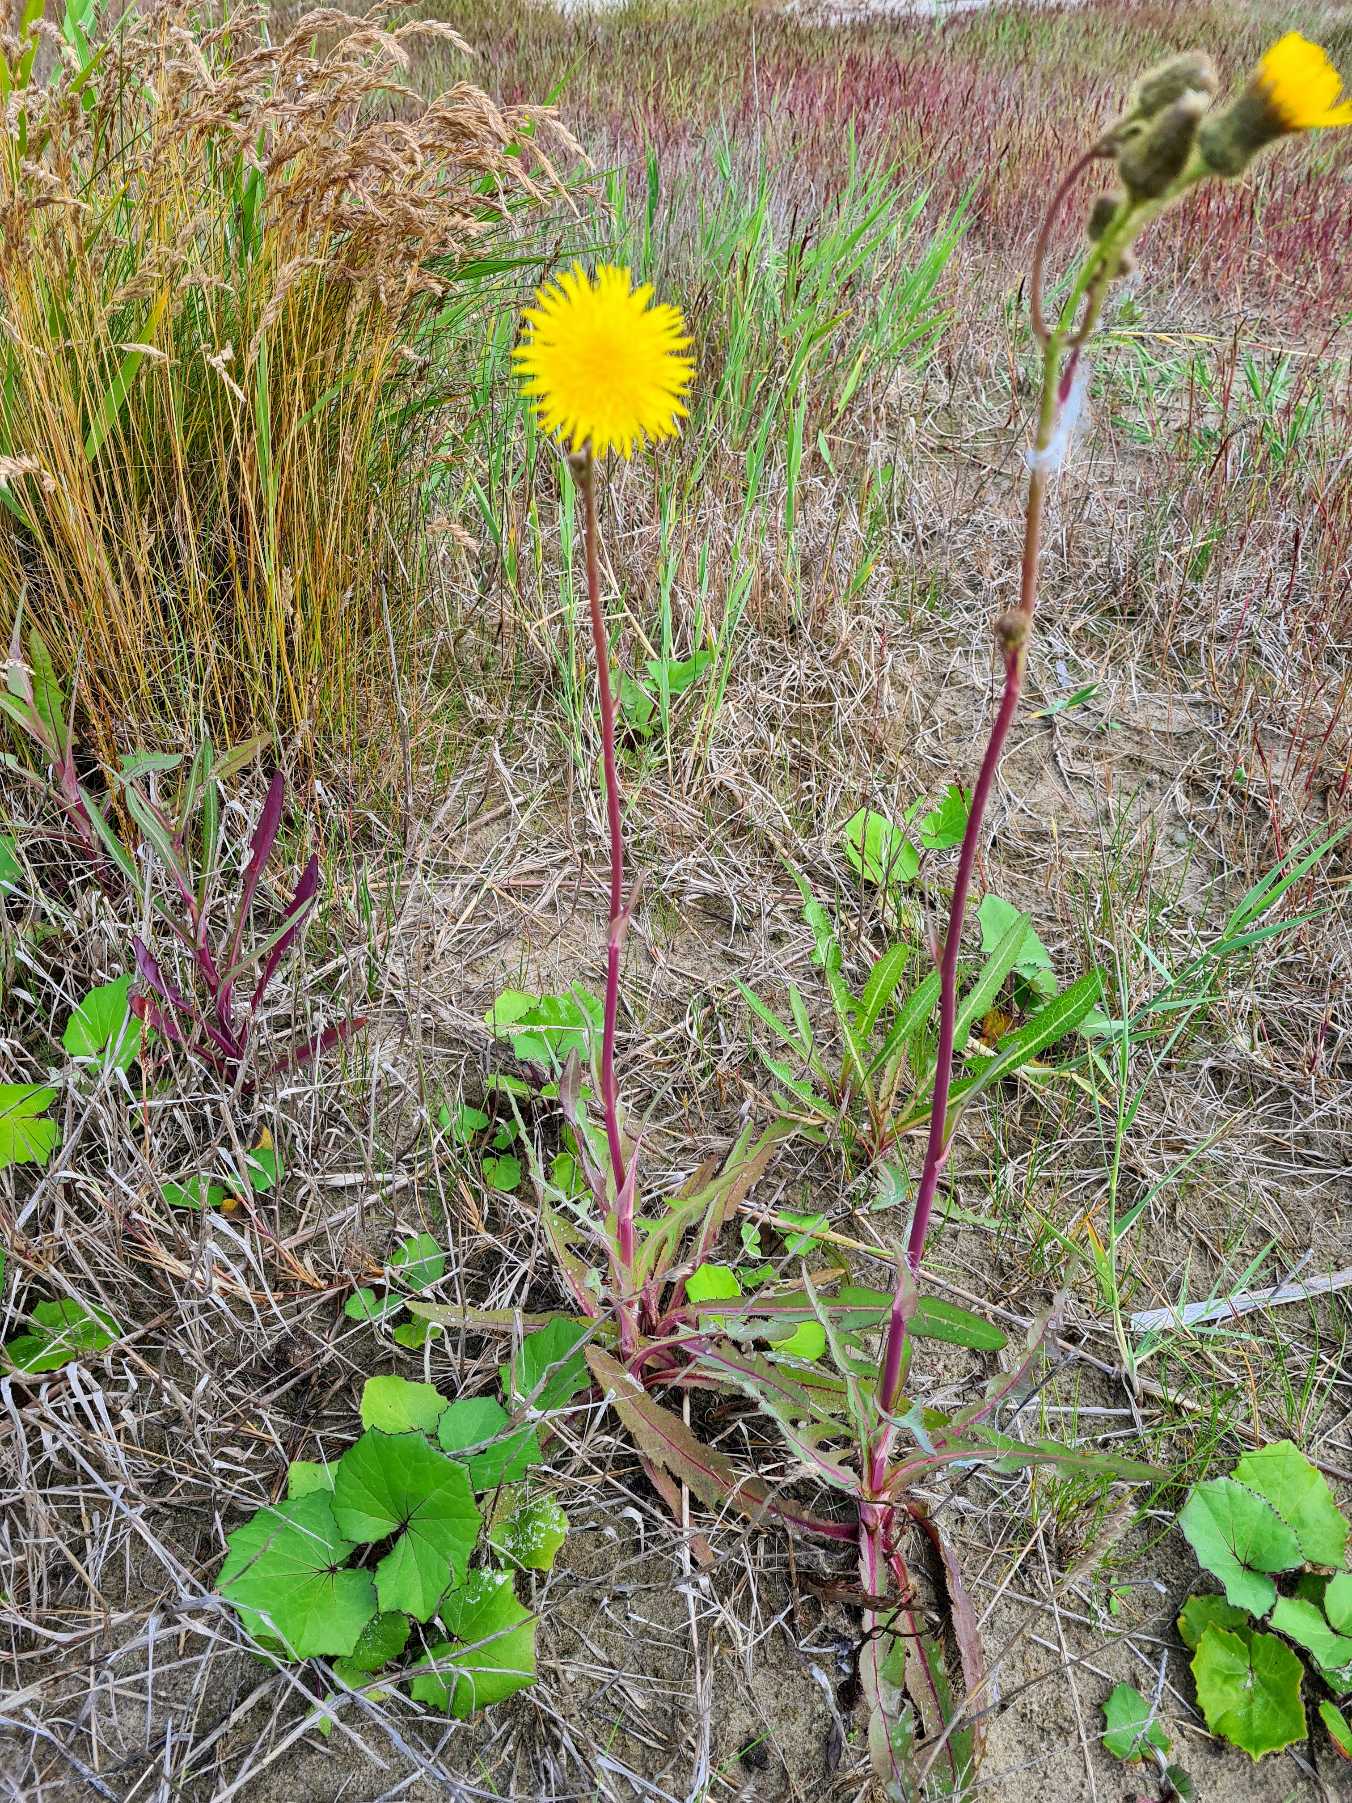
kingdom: Plantae
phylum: Tracheophyta
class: Magnoliopsida
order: Asterales
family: Asteraceae
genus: Sonchus
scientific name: Sonchus arvensis
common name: Ager-svinemælk
